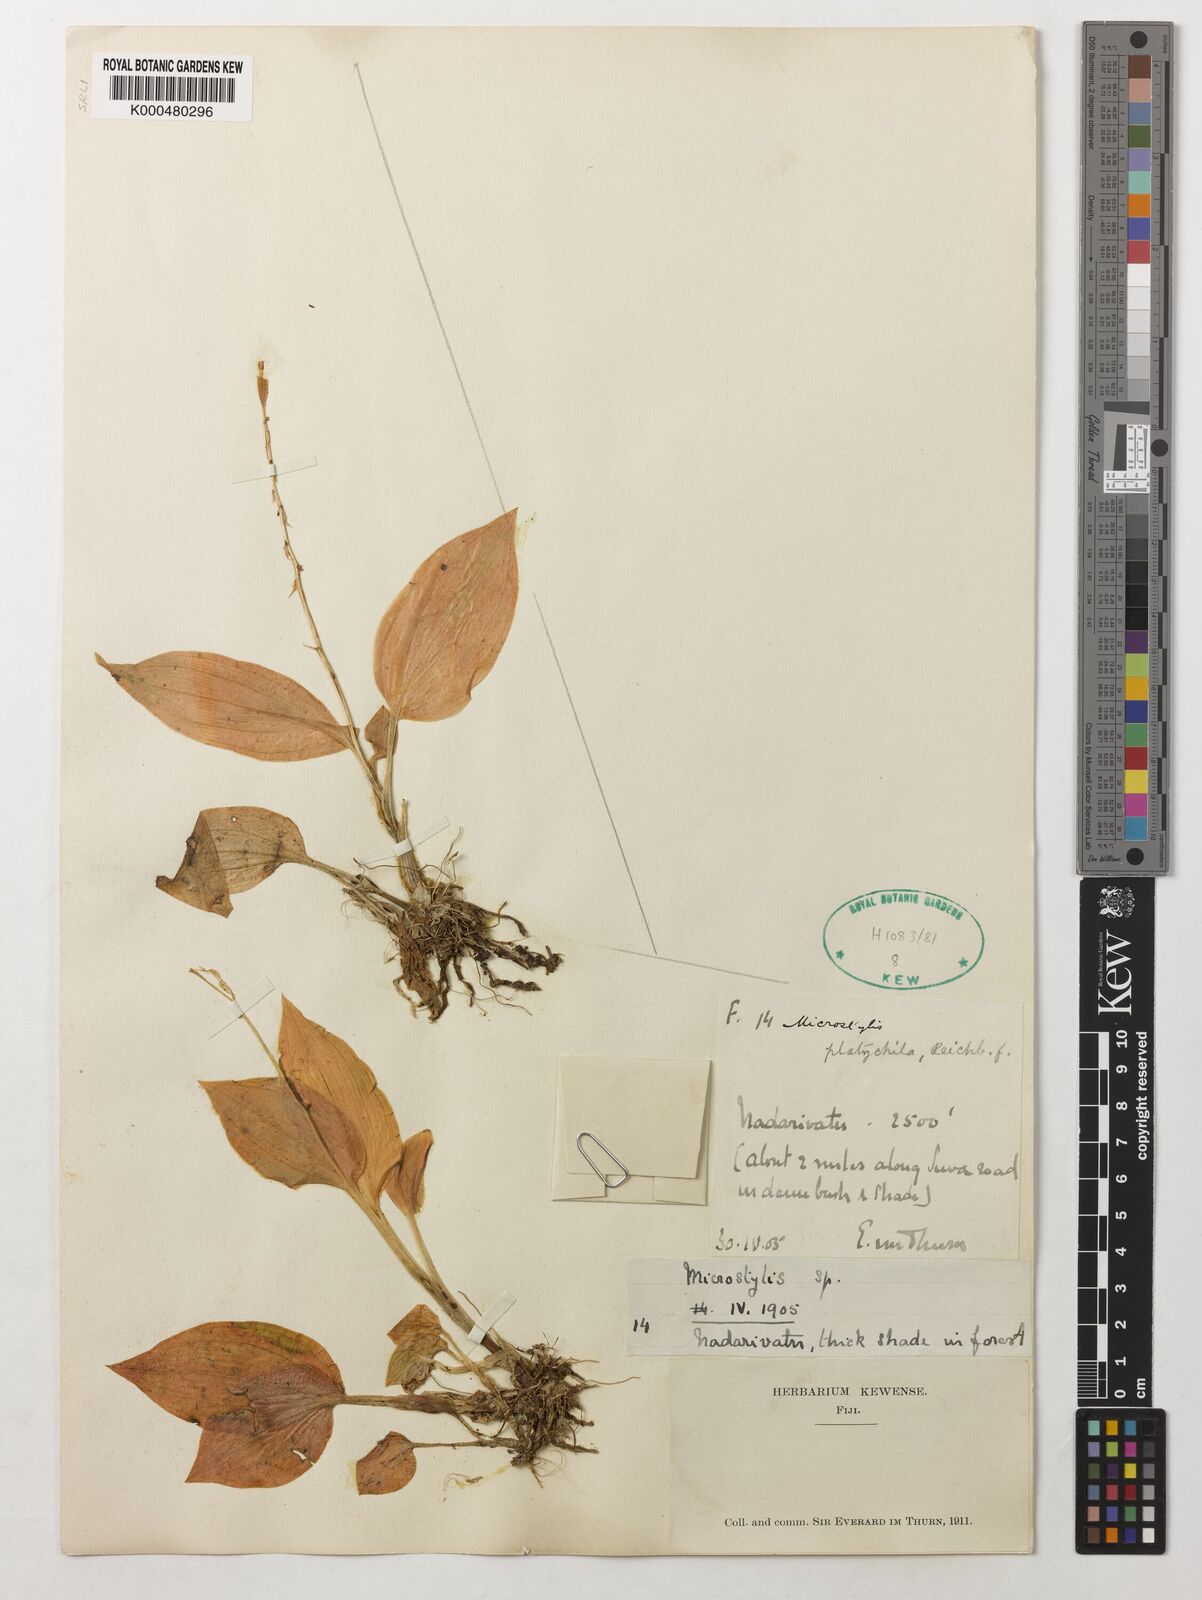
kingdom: Plantae
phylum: Tracheophyta
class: Liliopsida
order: Asparagales
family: Orchidaceae
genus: Crepidium
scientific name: Crepidium platychilum
